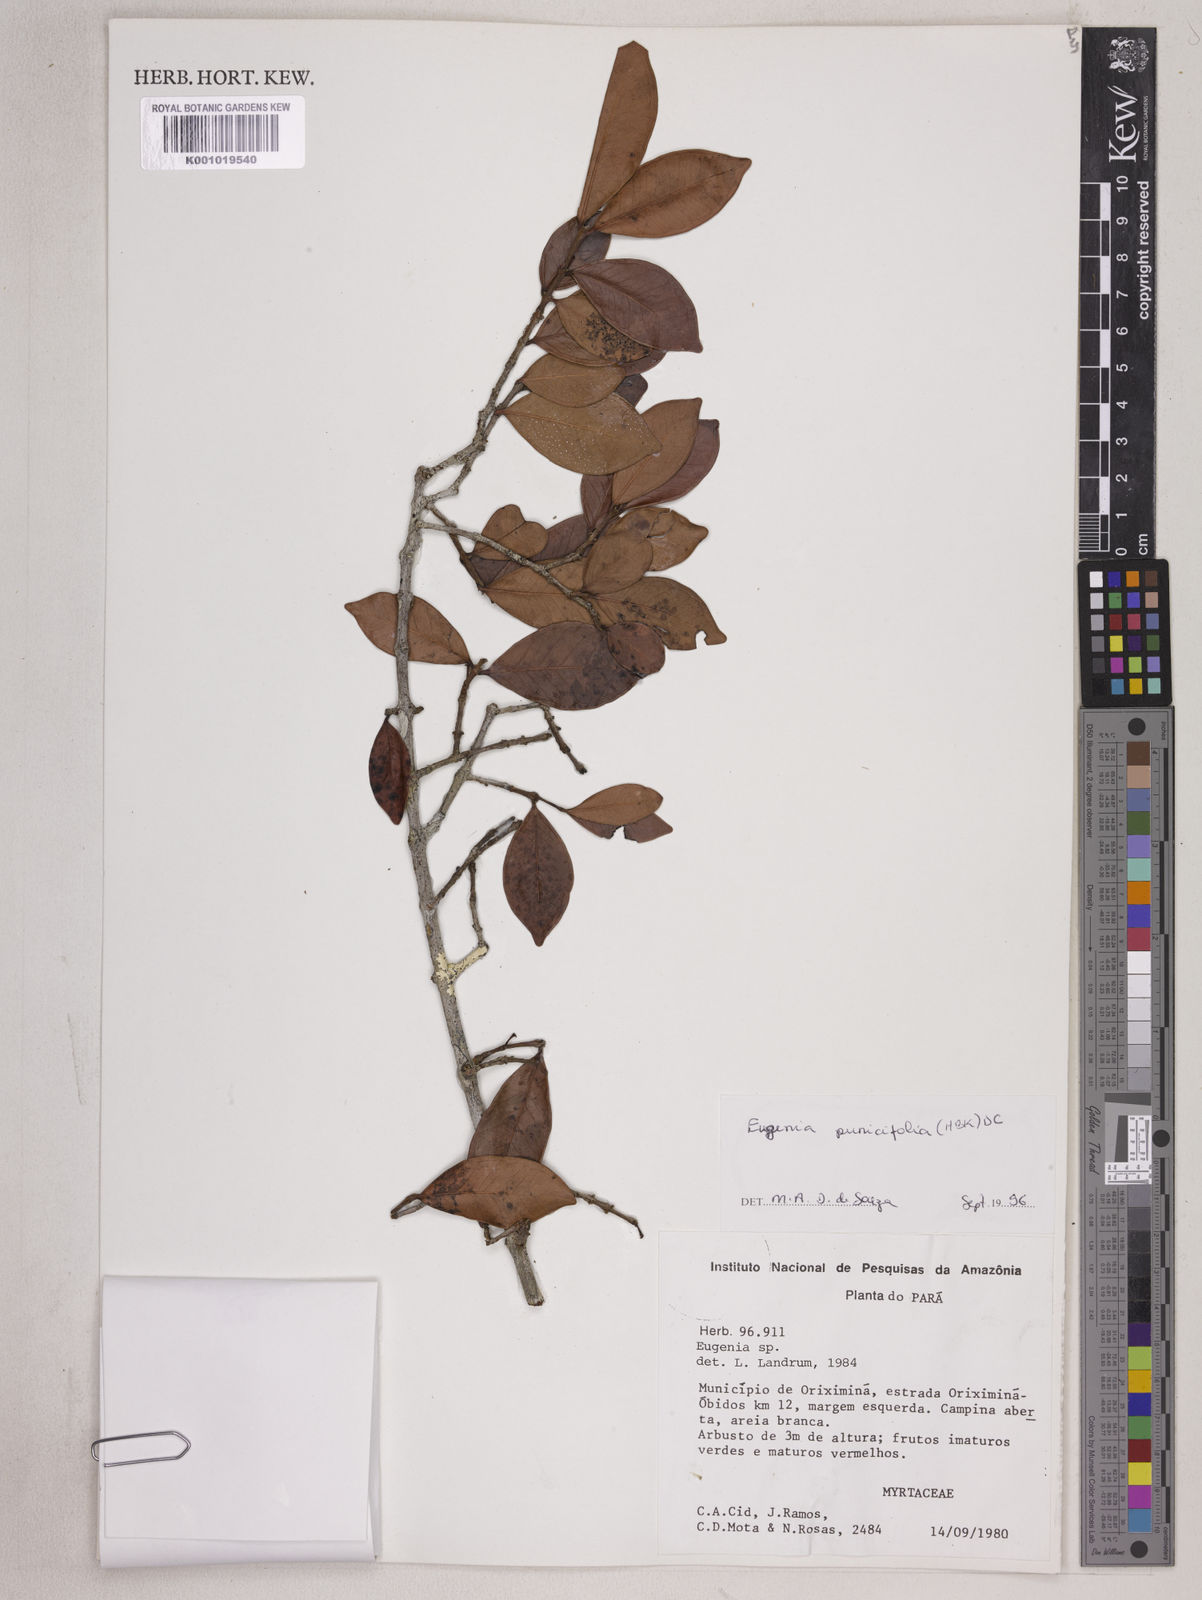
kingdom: Plantae
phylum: Tracheophyta
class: Magnoliopsida
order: Myrtales
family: Myrtaceae
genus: Eugenia
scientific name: Eugenia punicifolia
